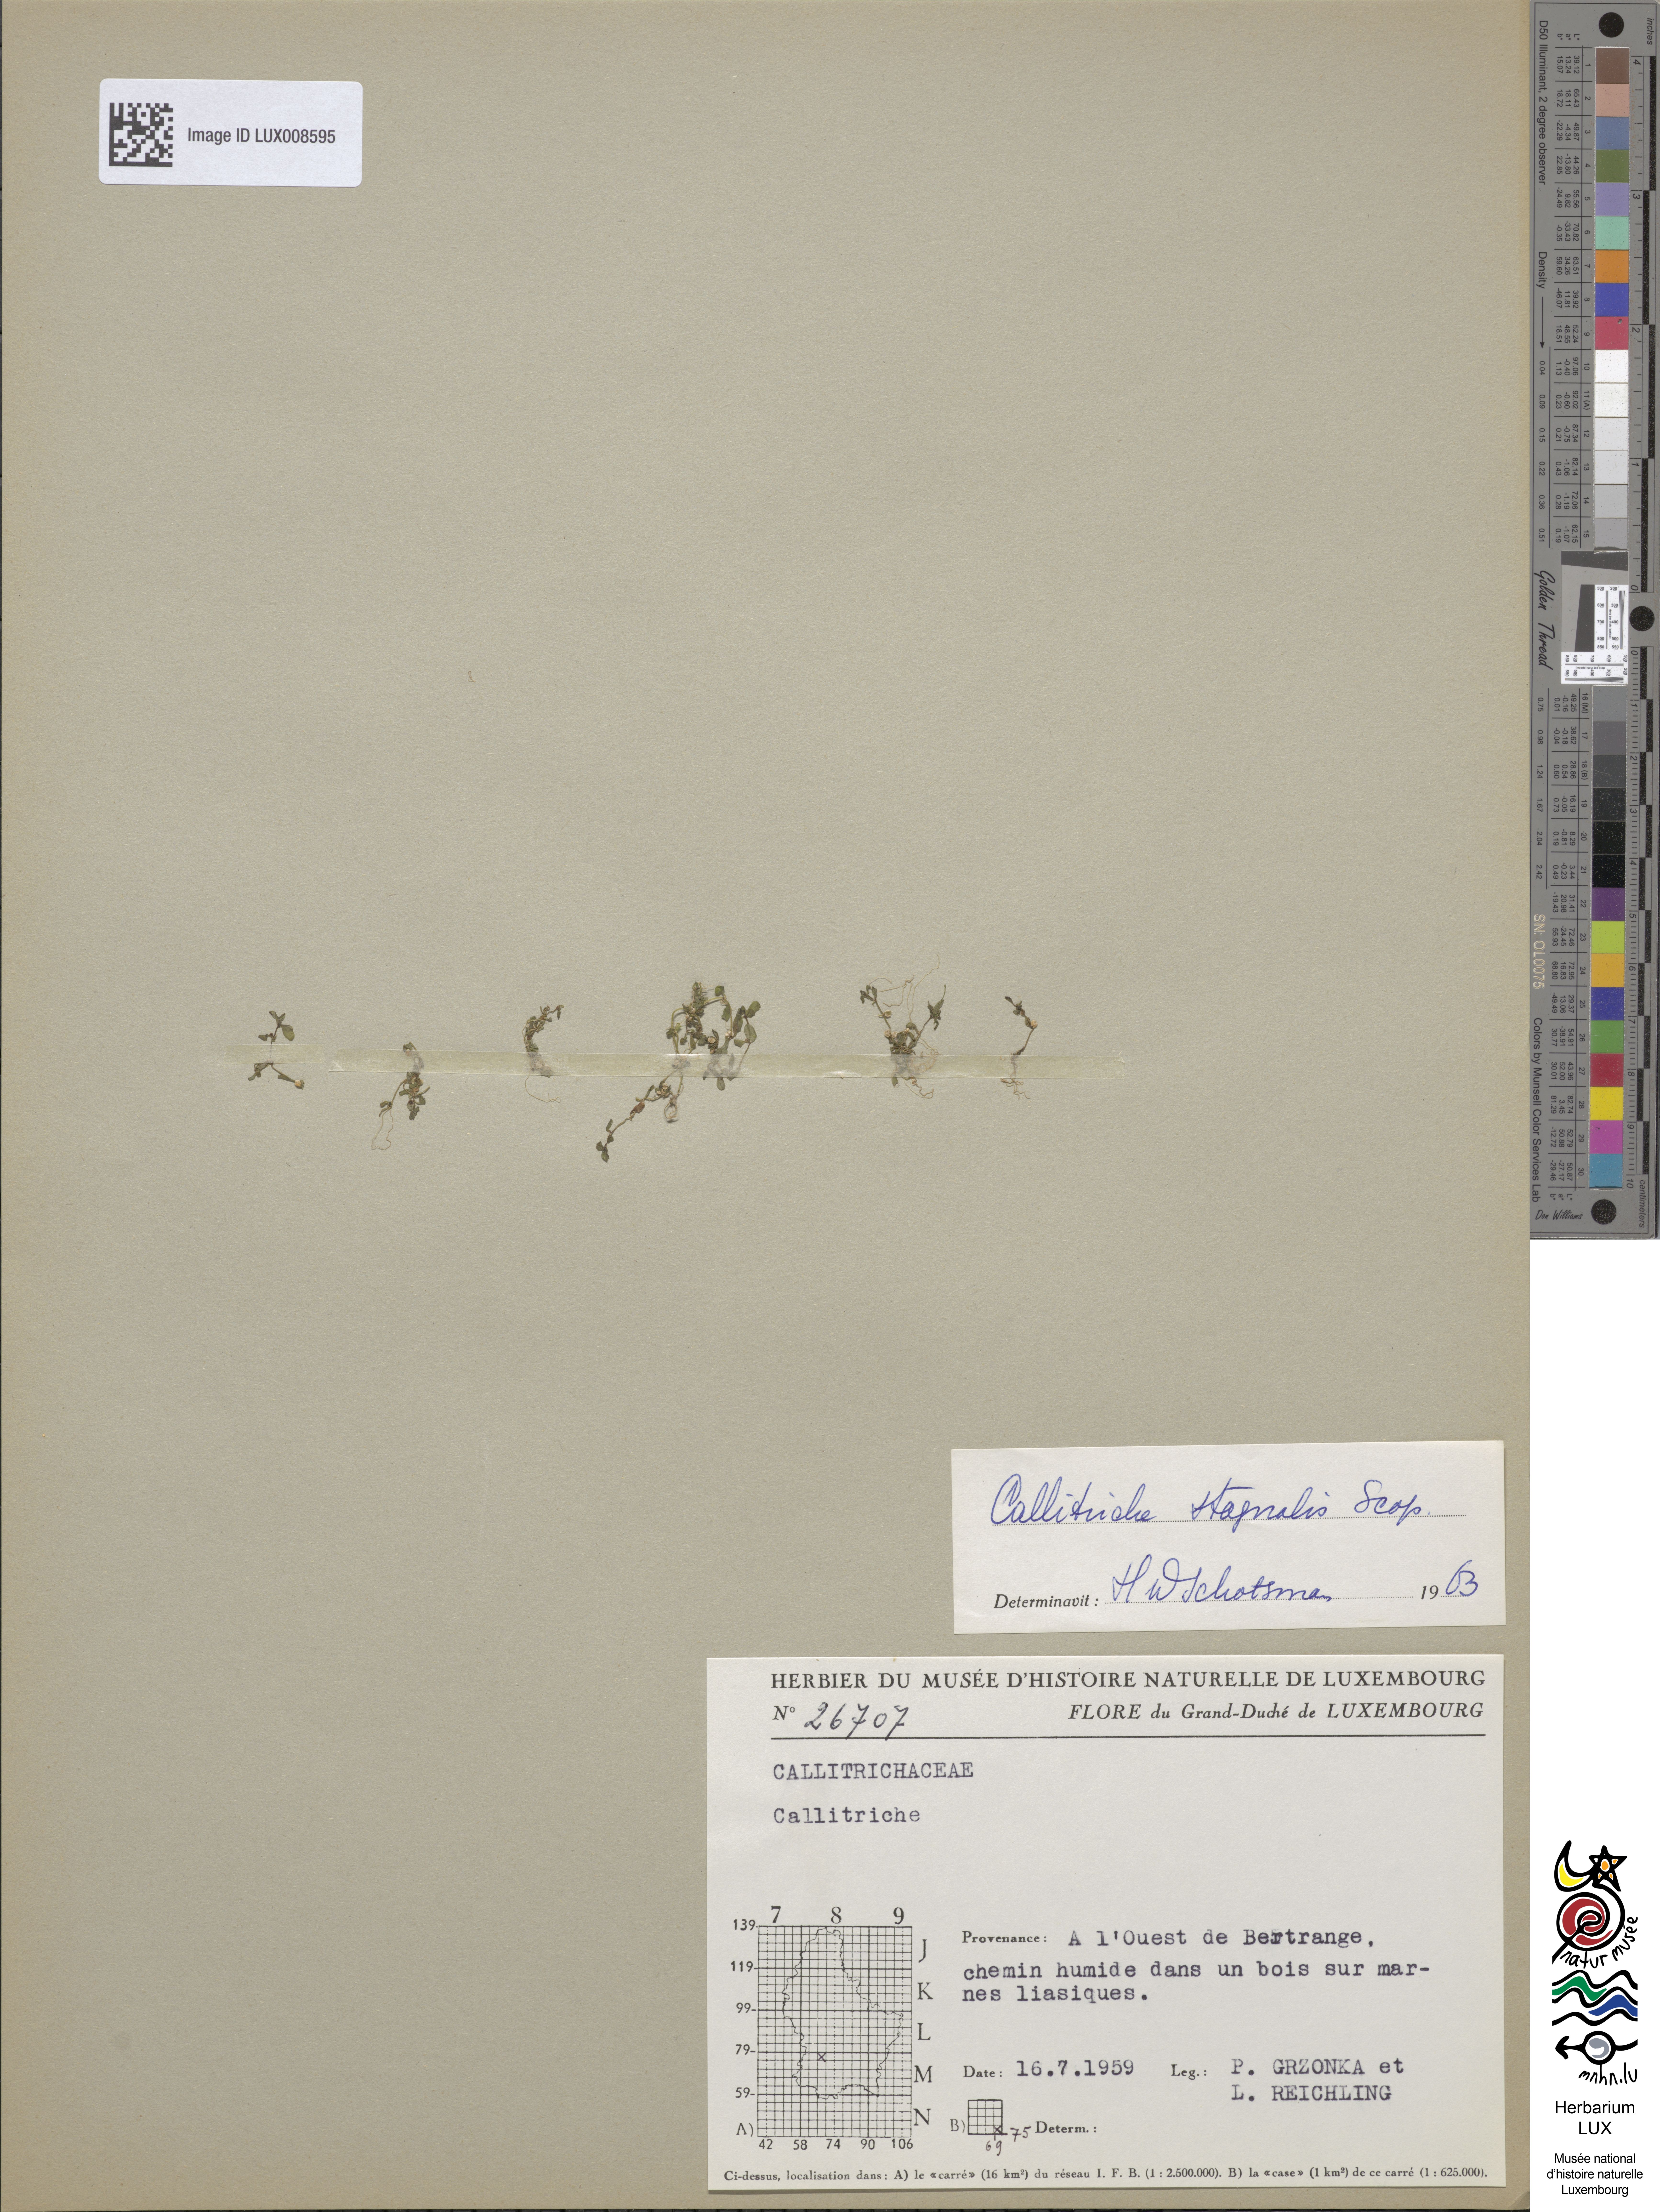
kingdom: Plantae
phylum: Tracheophyta
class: Magnoliopsida
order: Lamiales
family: Plantaginaceae
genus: Callitriche
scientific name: Callitriche
